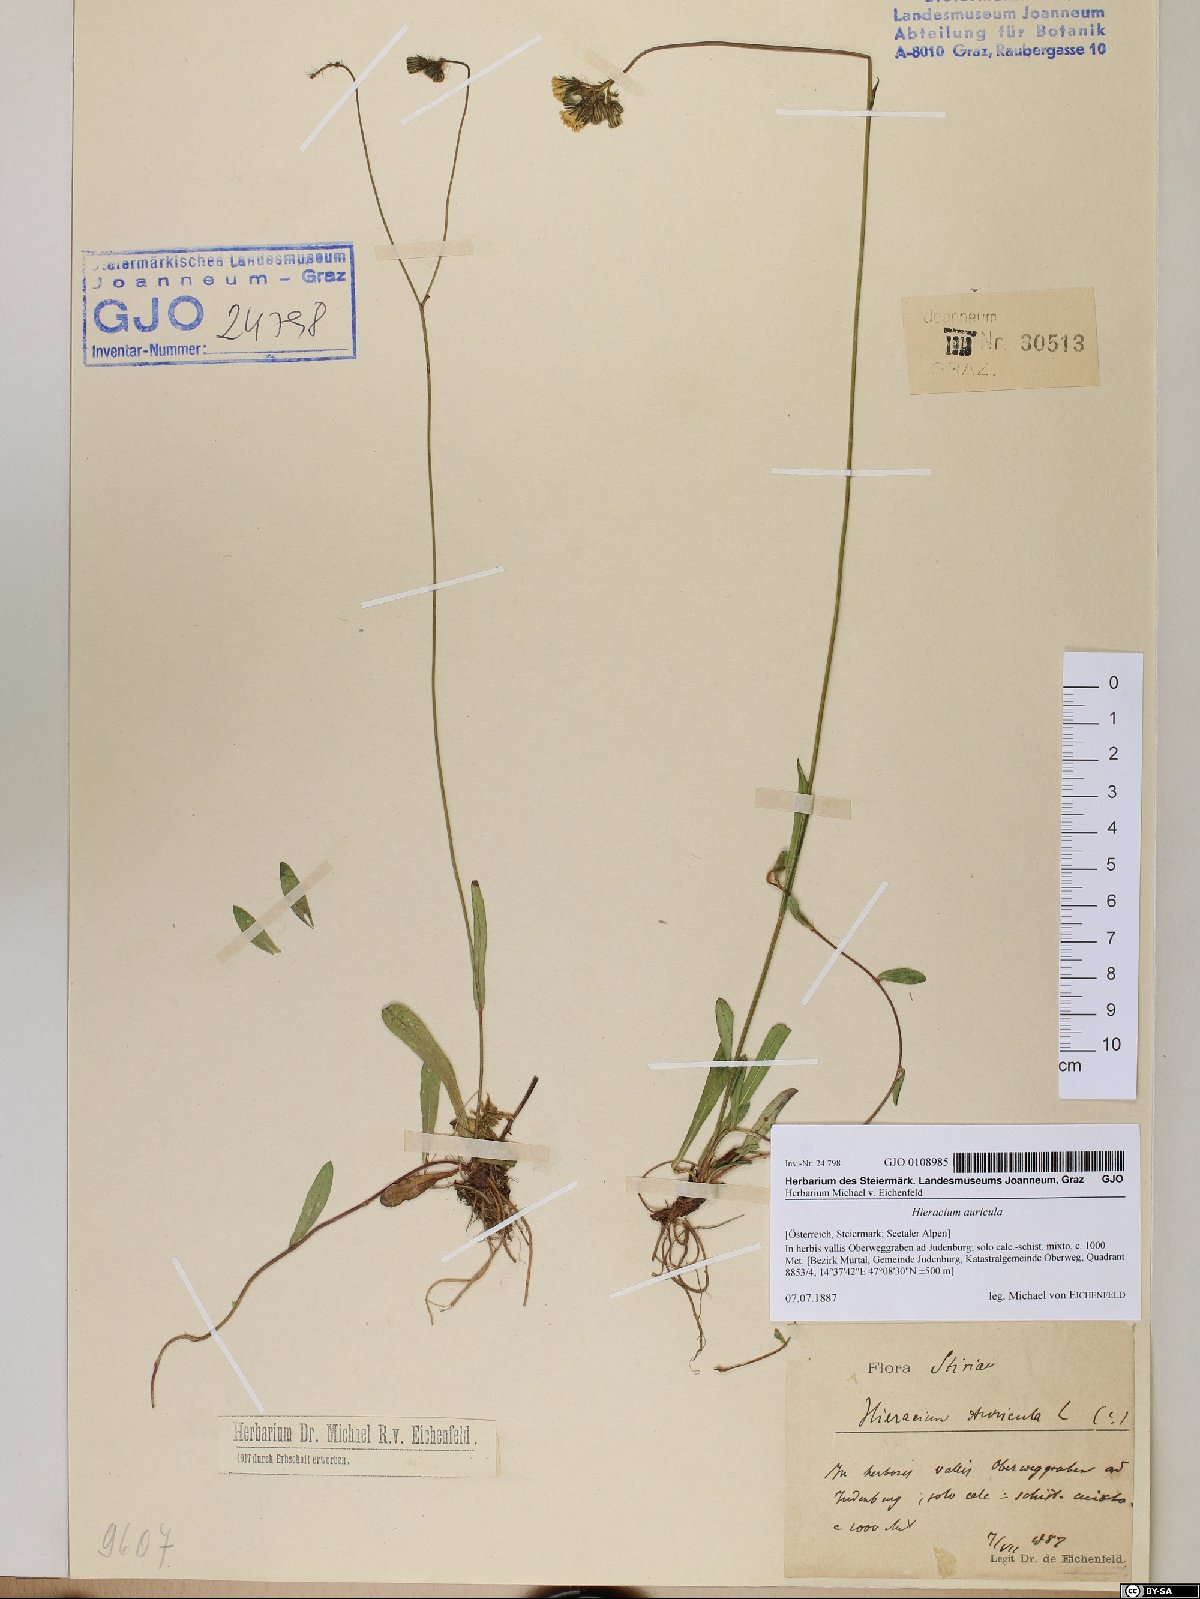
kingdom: Plantae
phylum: Tracheophyta
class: Magnoliopsida
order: Asterales
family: Asteraceae
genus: Hieracium
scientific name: Hieracium auricula
